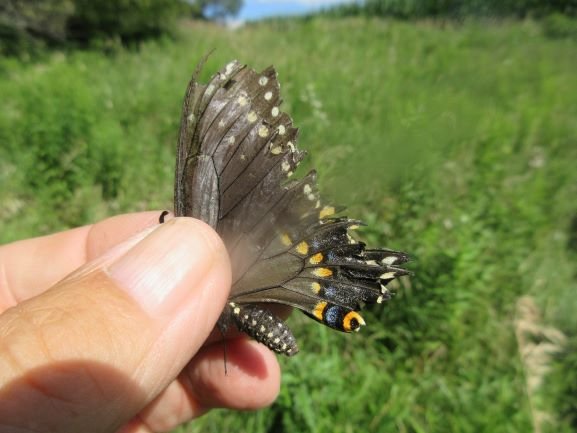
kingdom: Animalia
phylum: Arthropoda
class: Insecta
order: Lepidoptera
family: Papilionidae
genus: Papilio
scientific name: Papilio polyxenes
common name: Black Swallowtail
